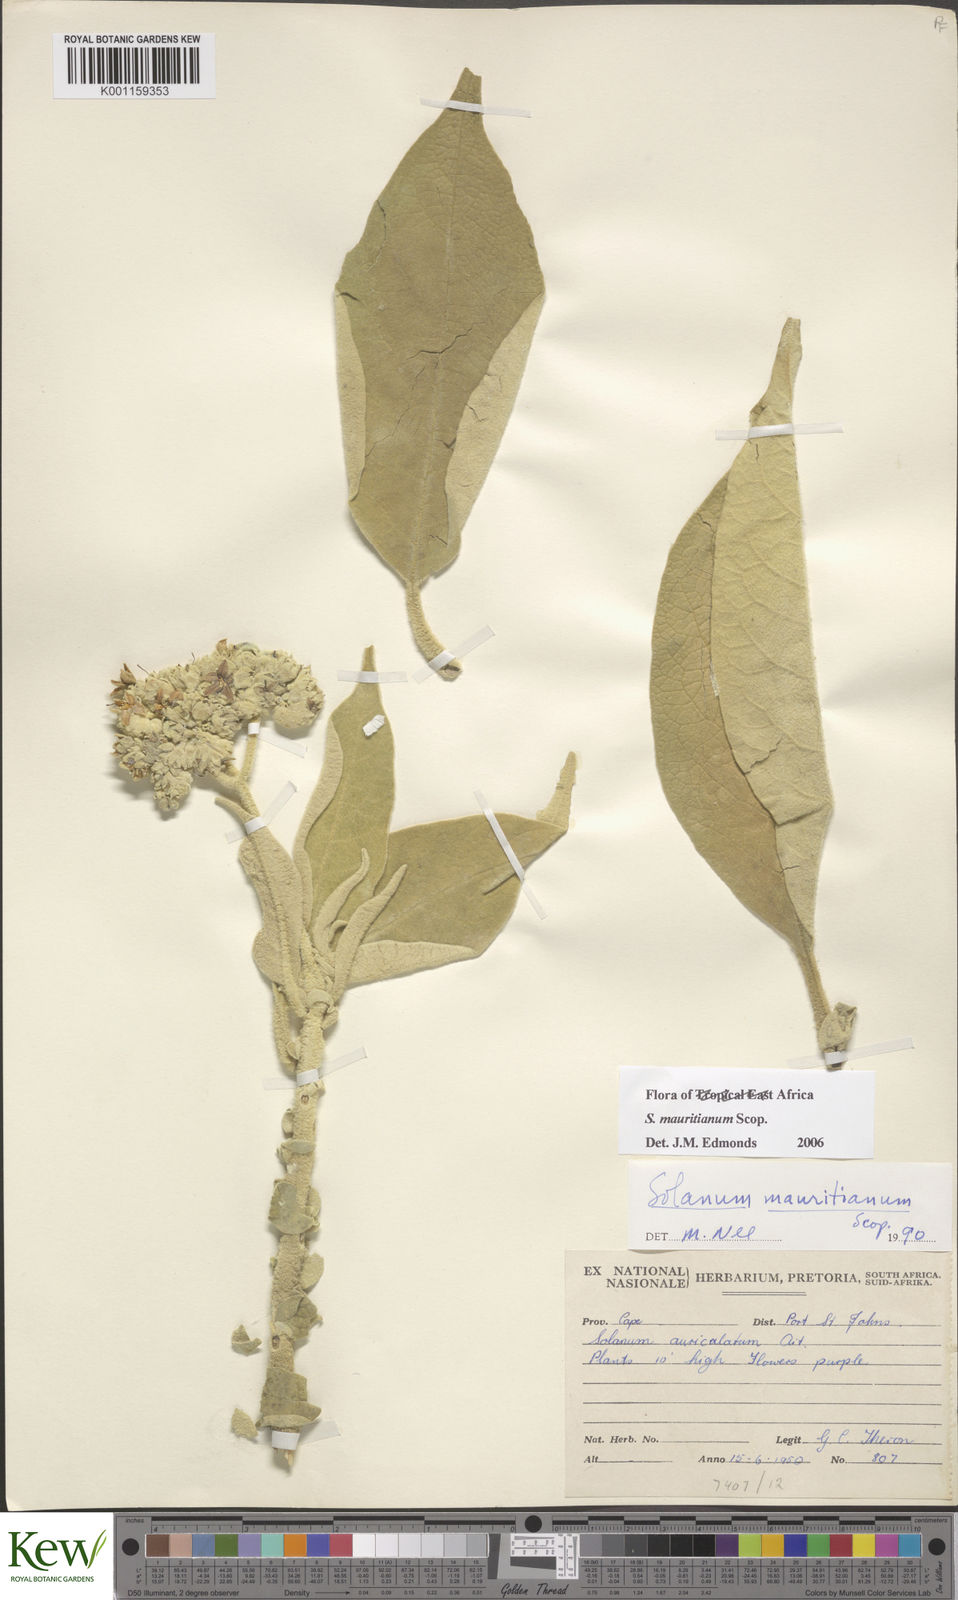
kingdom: Plantae
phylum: Tracheophyta
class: Magnoliopsida
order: Solanales
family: Solanaceae
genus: Solanum
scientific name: Solanum mauritianum
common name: Earleaf nightshade
